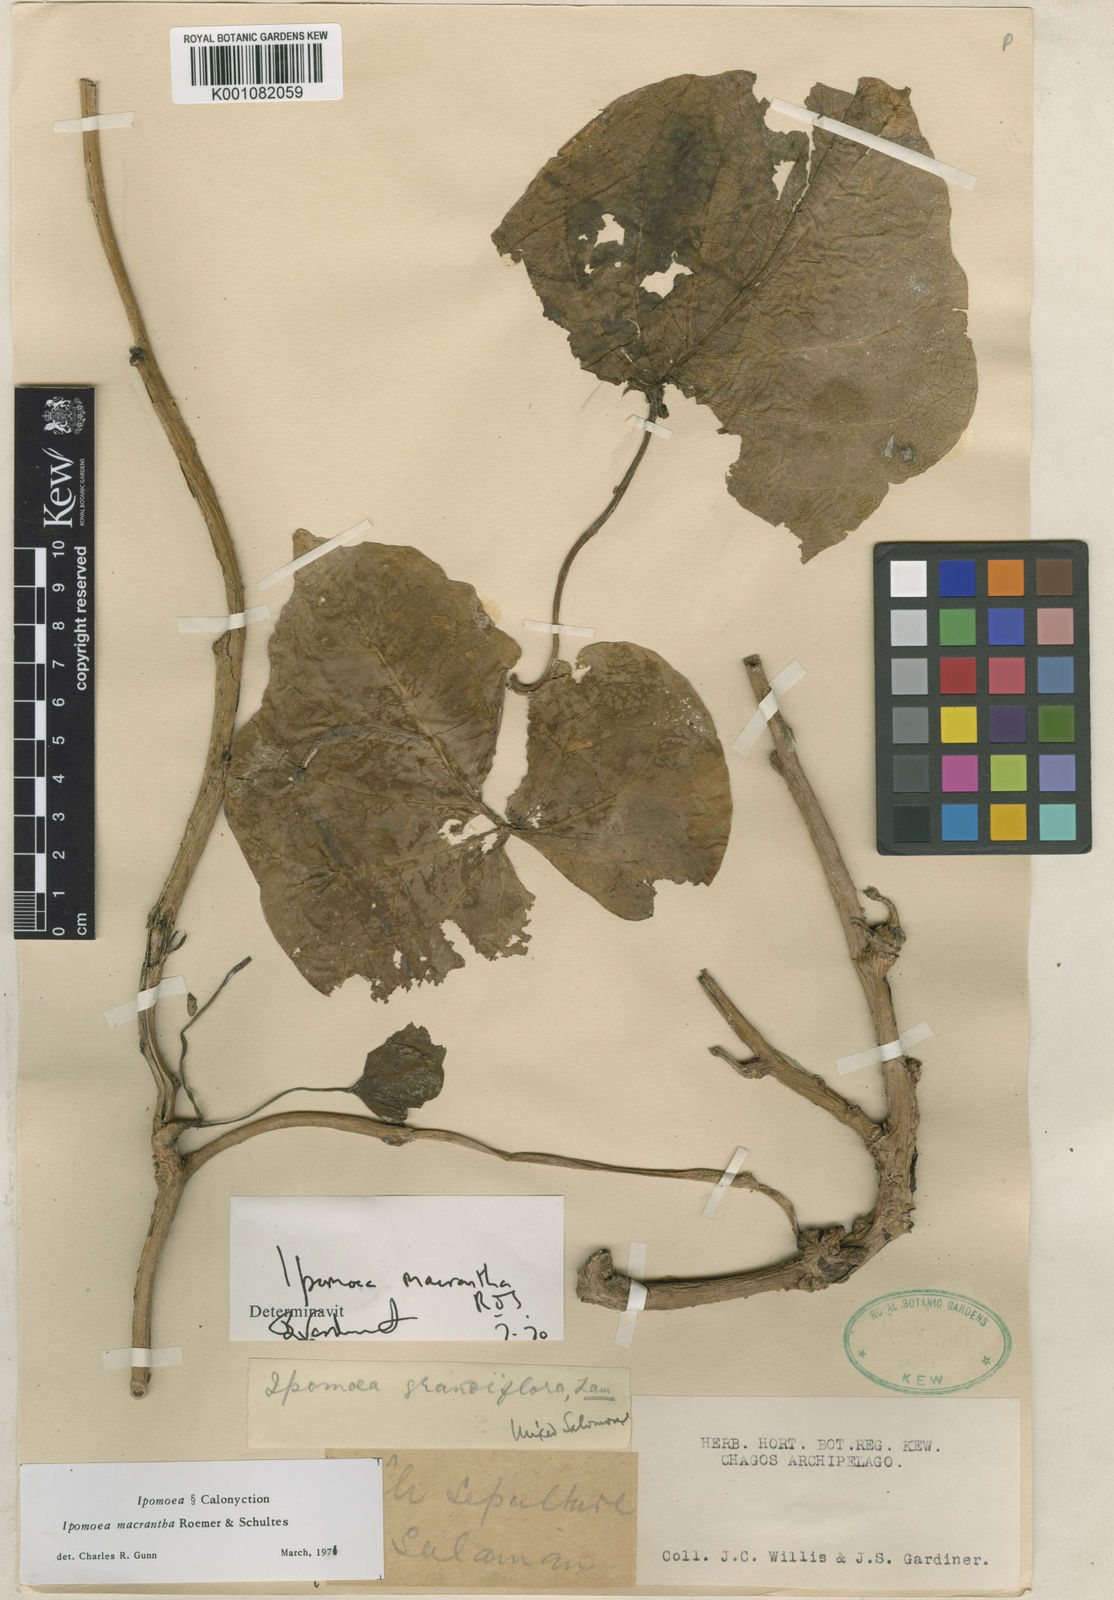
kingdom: Plantae
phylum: Tracheophyta
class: Magnoliopsida
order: Solanales
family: Convolvulaceae
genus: Ipomoea
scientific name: Ipomoea violacea
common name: Beach moonflower
